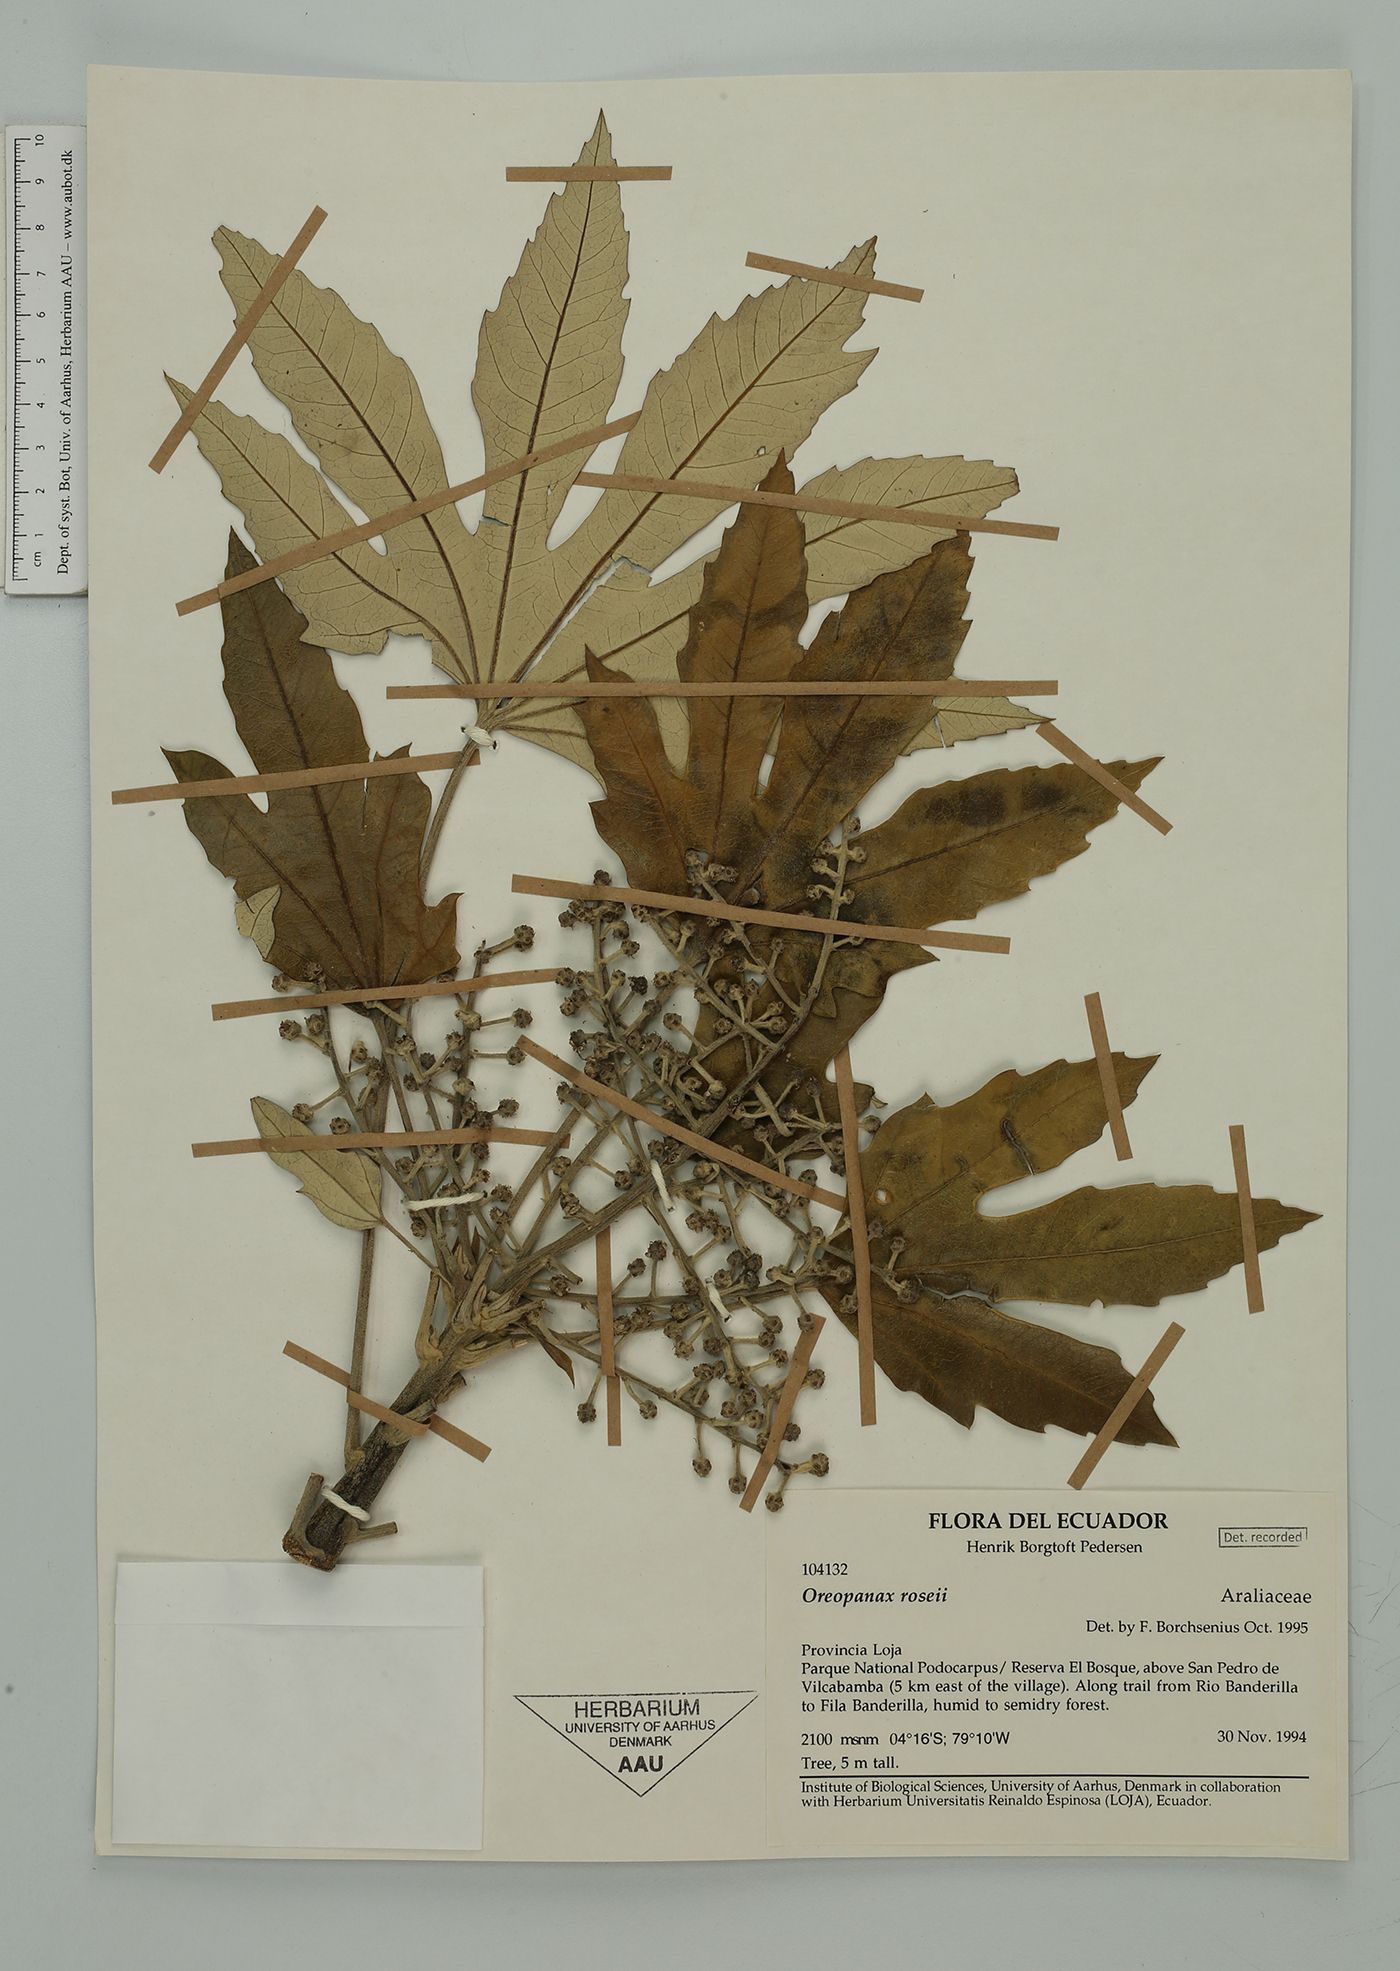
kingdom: Plantae
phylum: Tracheophyta
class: Magnoliopsida
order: Apiales
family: Araliaceae
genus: Oreopanax
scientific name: Oreopanax rosei
